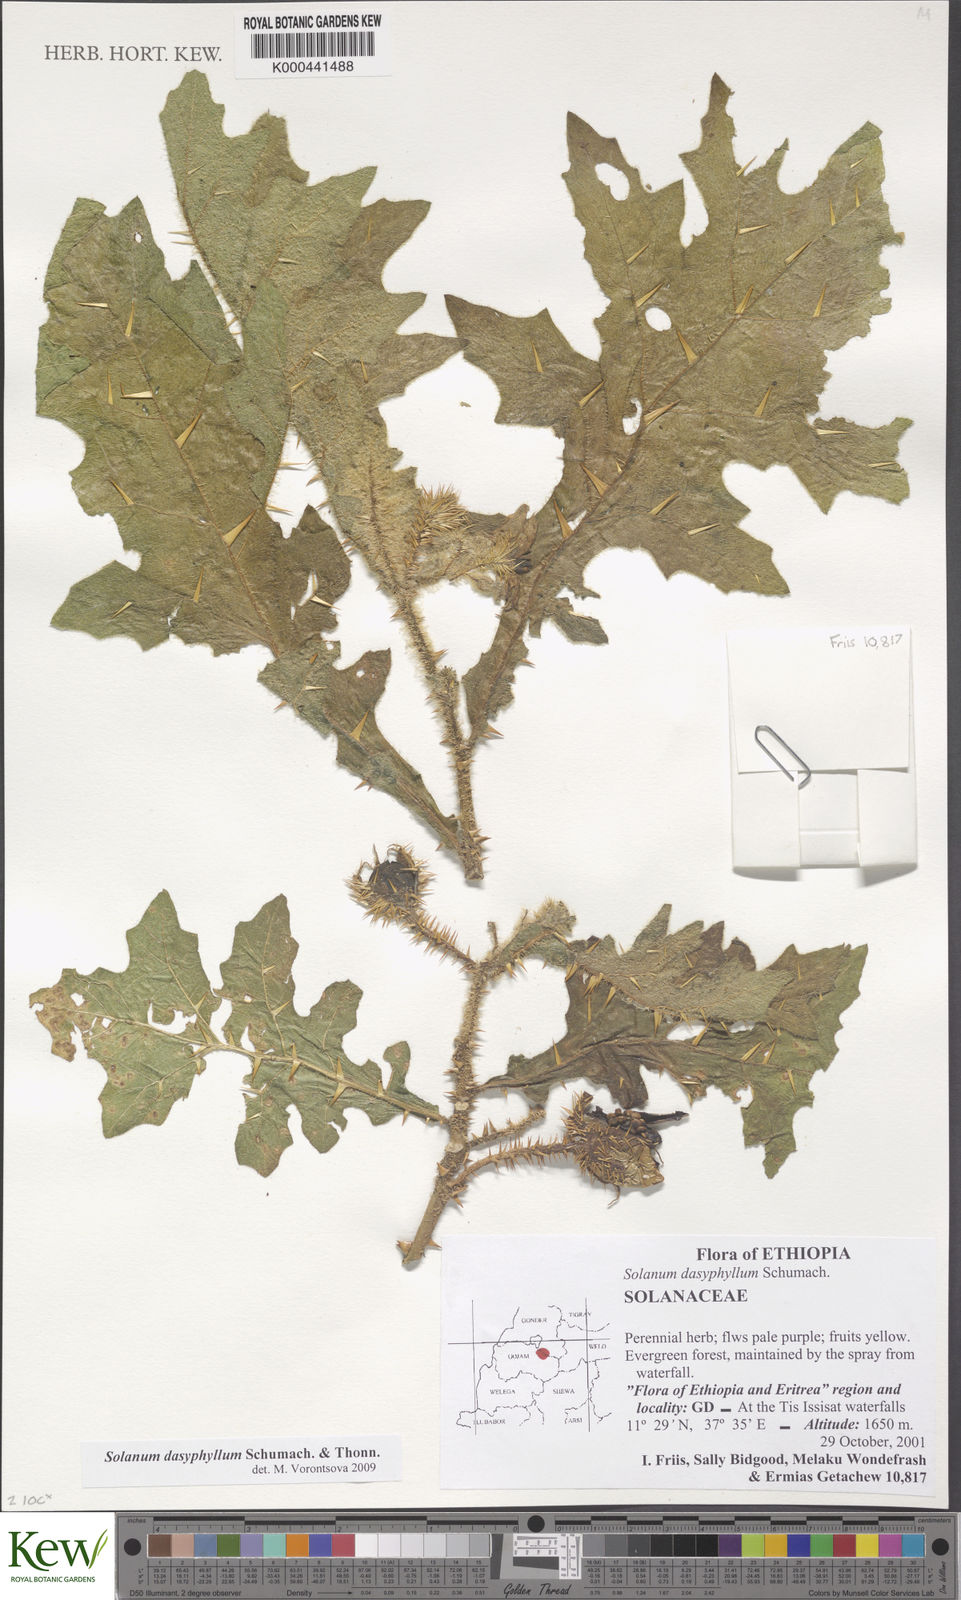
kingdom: Plantae
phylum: Tracheophyta
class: Magnoliopsida
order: Solanales
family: Solanaceae
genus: Solanum
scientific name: Solanum dasyphyllum
